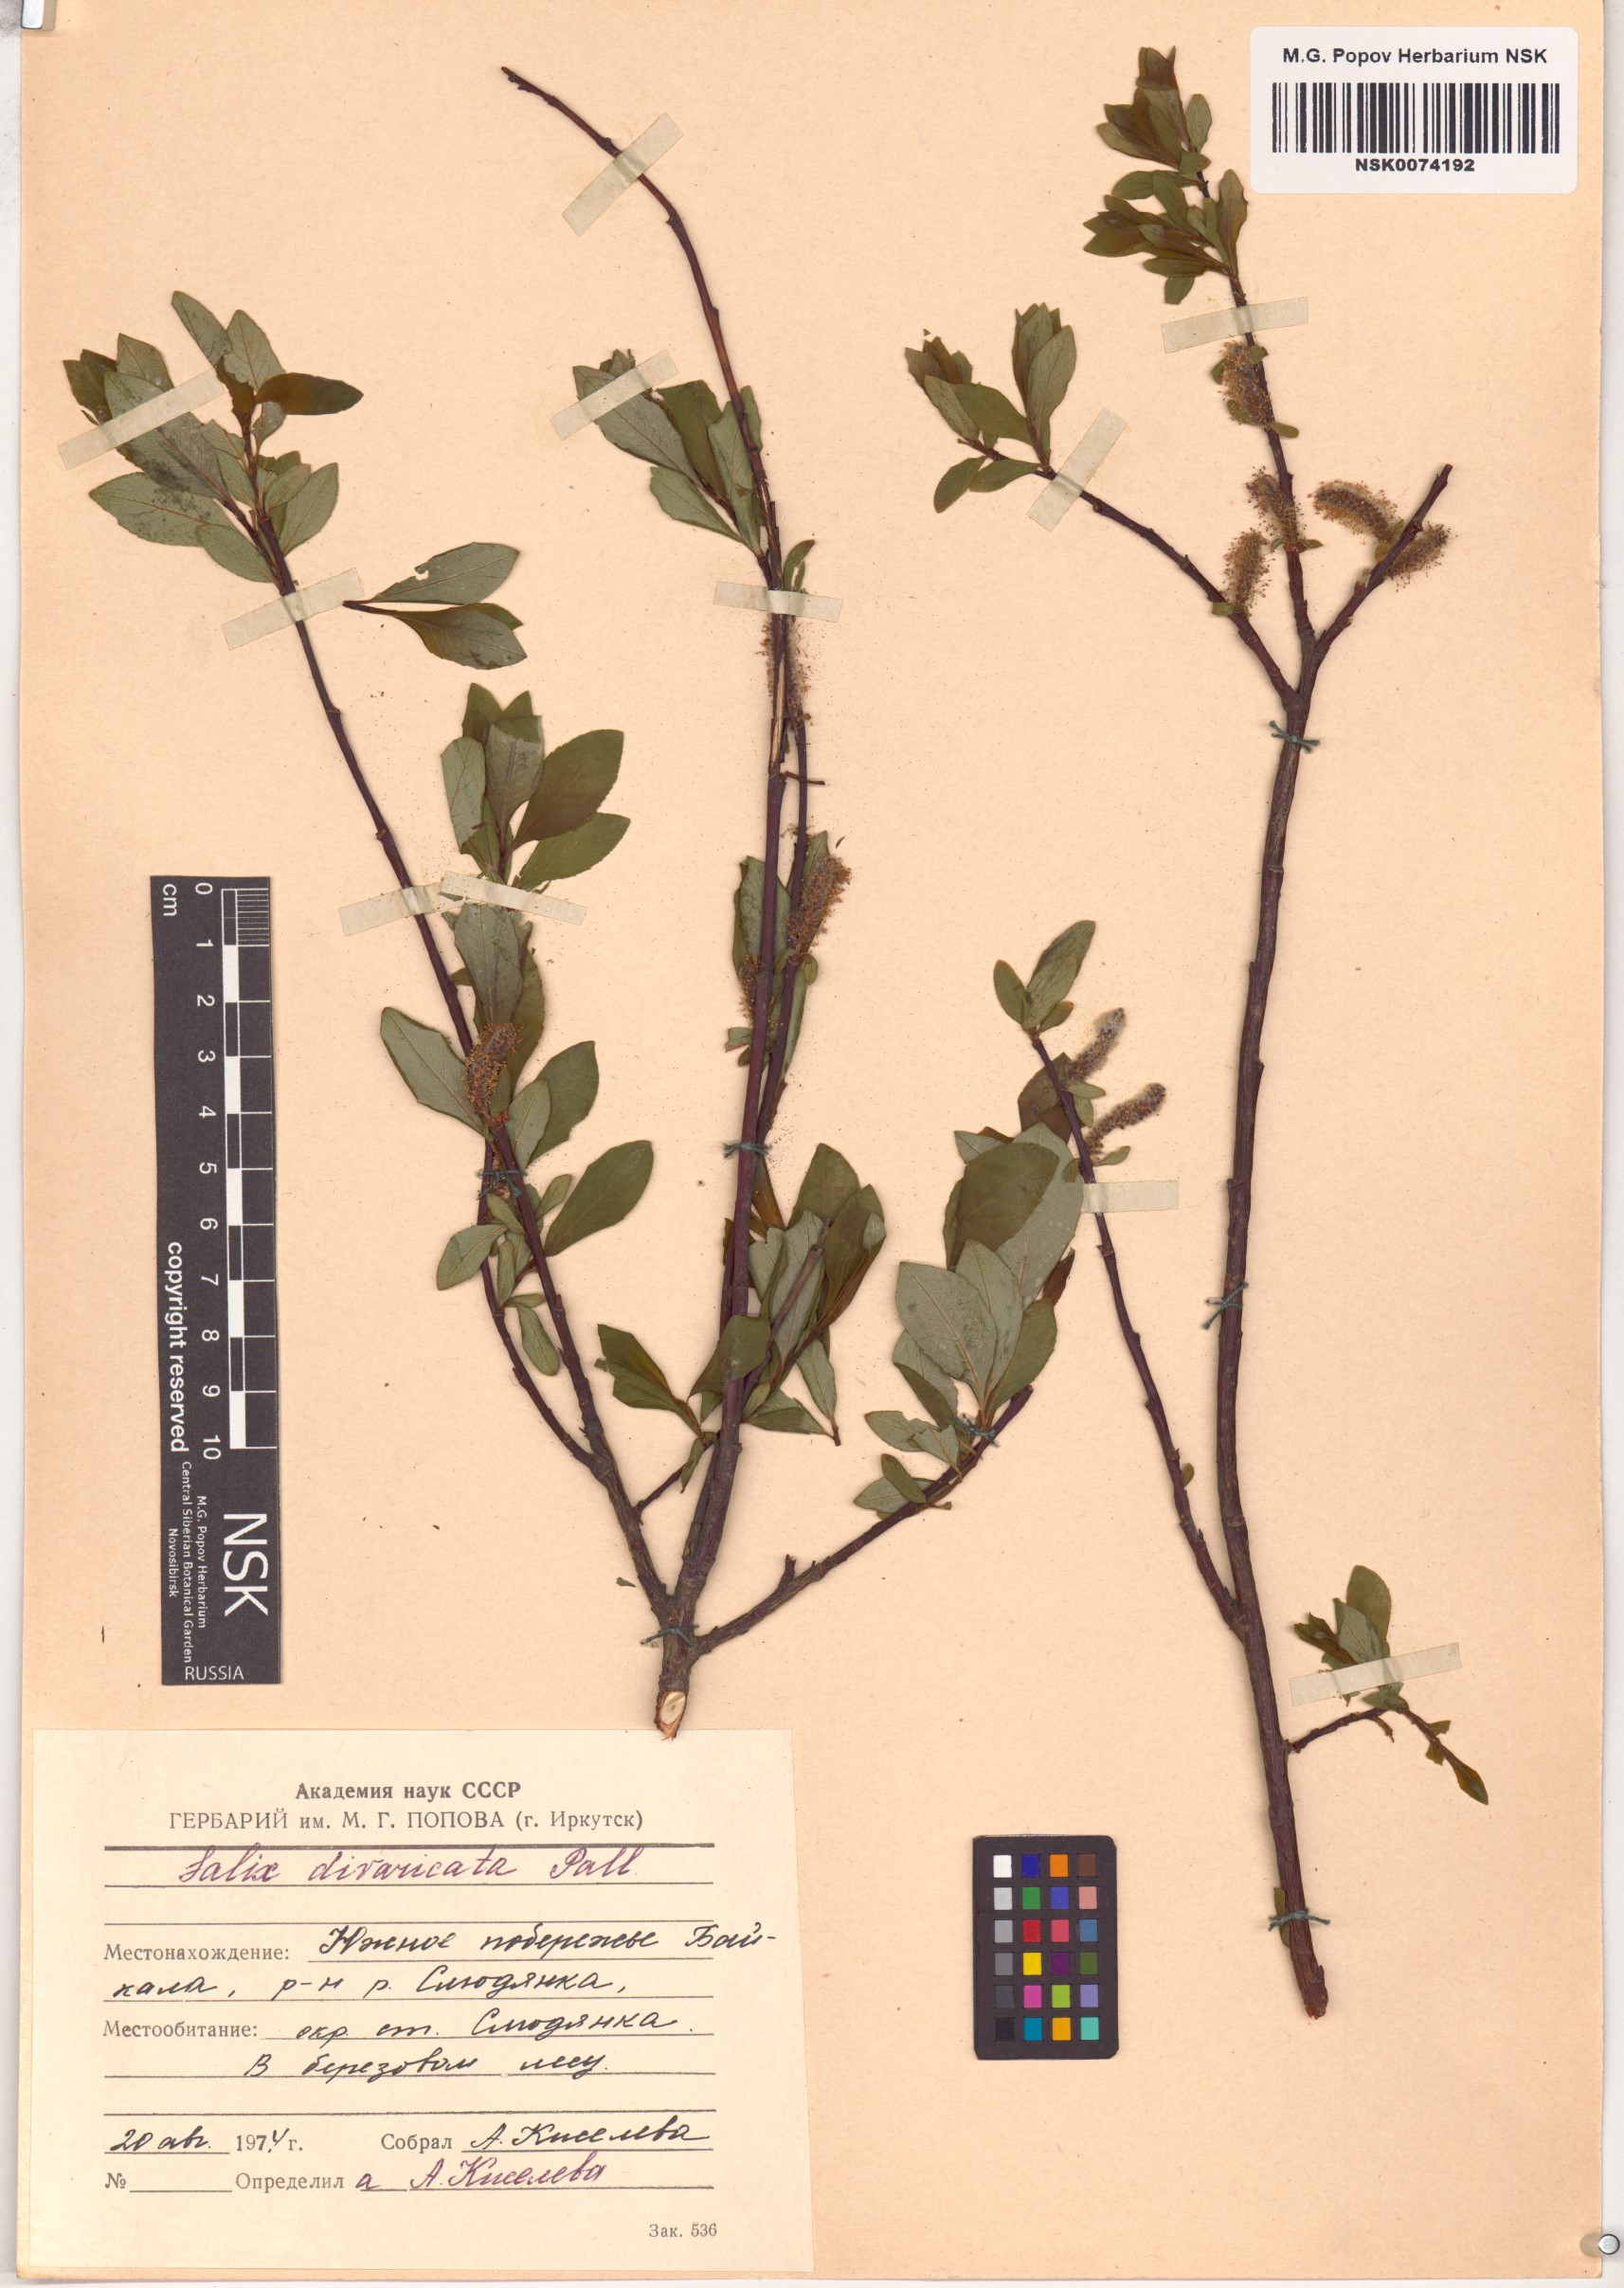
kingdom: Plantae
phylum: Tracheophyta
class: Magnoliopsida
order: Malpighiales
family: Salicaceae
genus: Salix
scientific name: Salix divaricata
